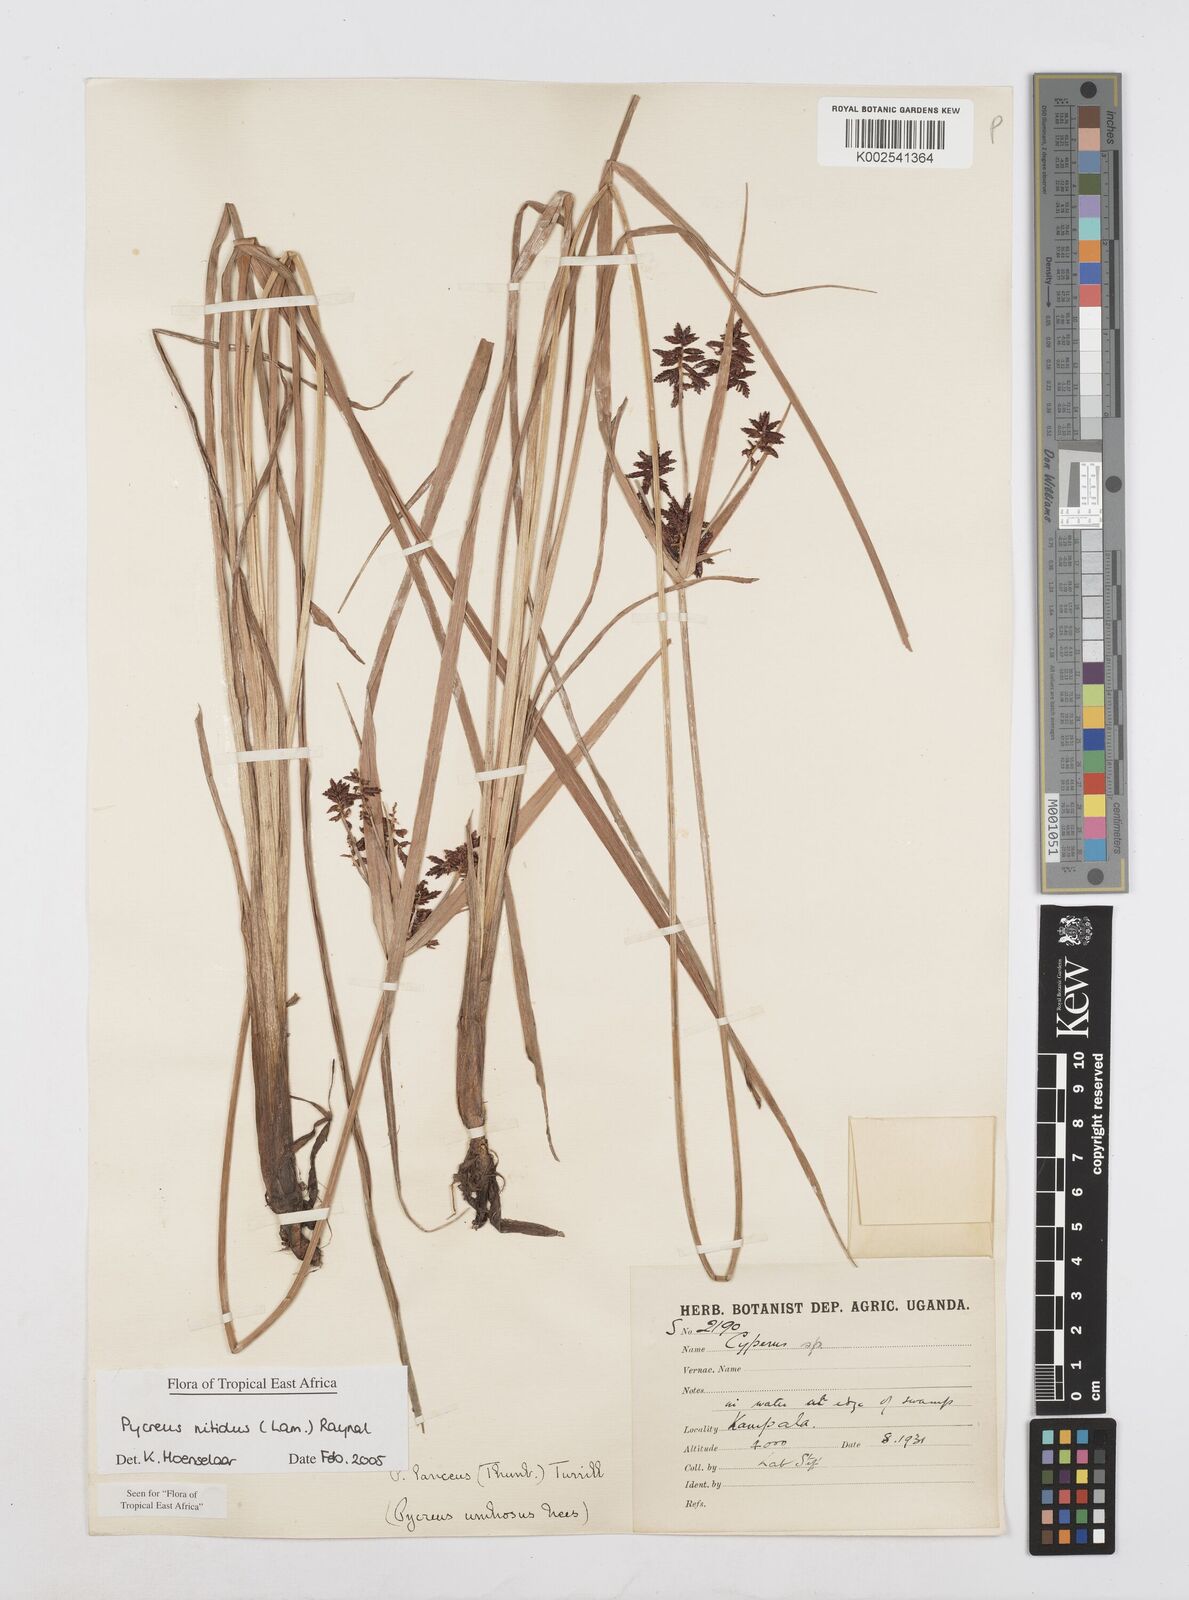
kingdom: Plantae
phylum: Tracheophyta
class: Liliopsida
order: Poales
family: Cyperaceae
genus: Cyperus
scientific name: Cyperus nitidus
